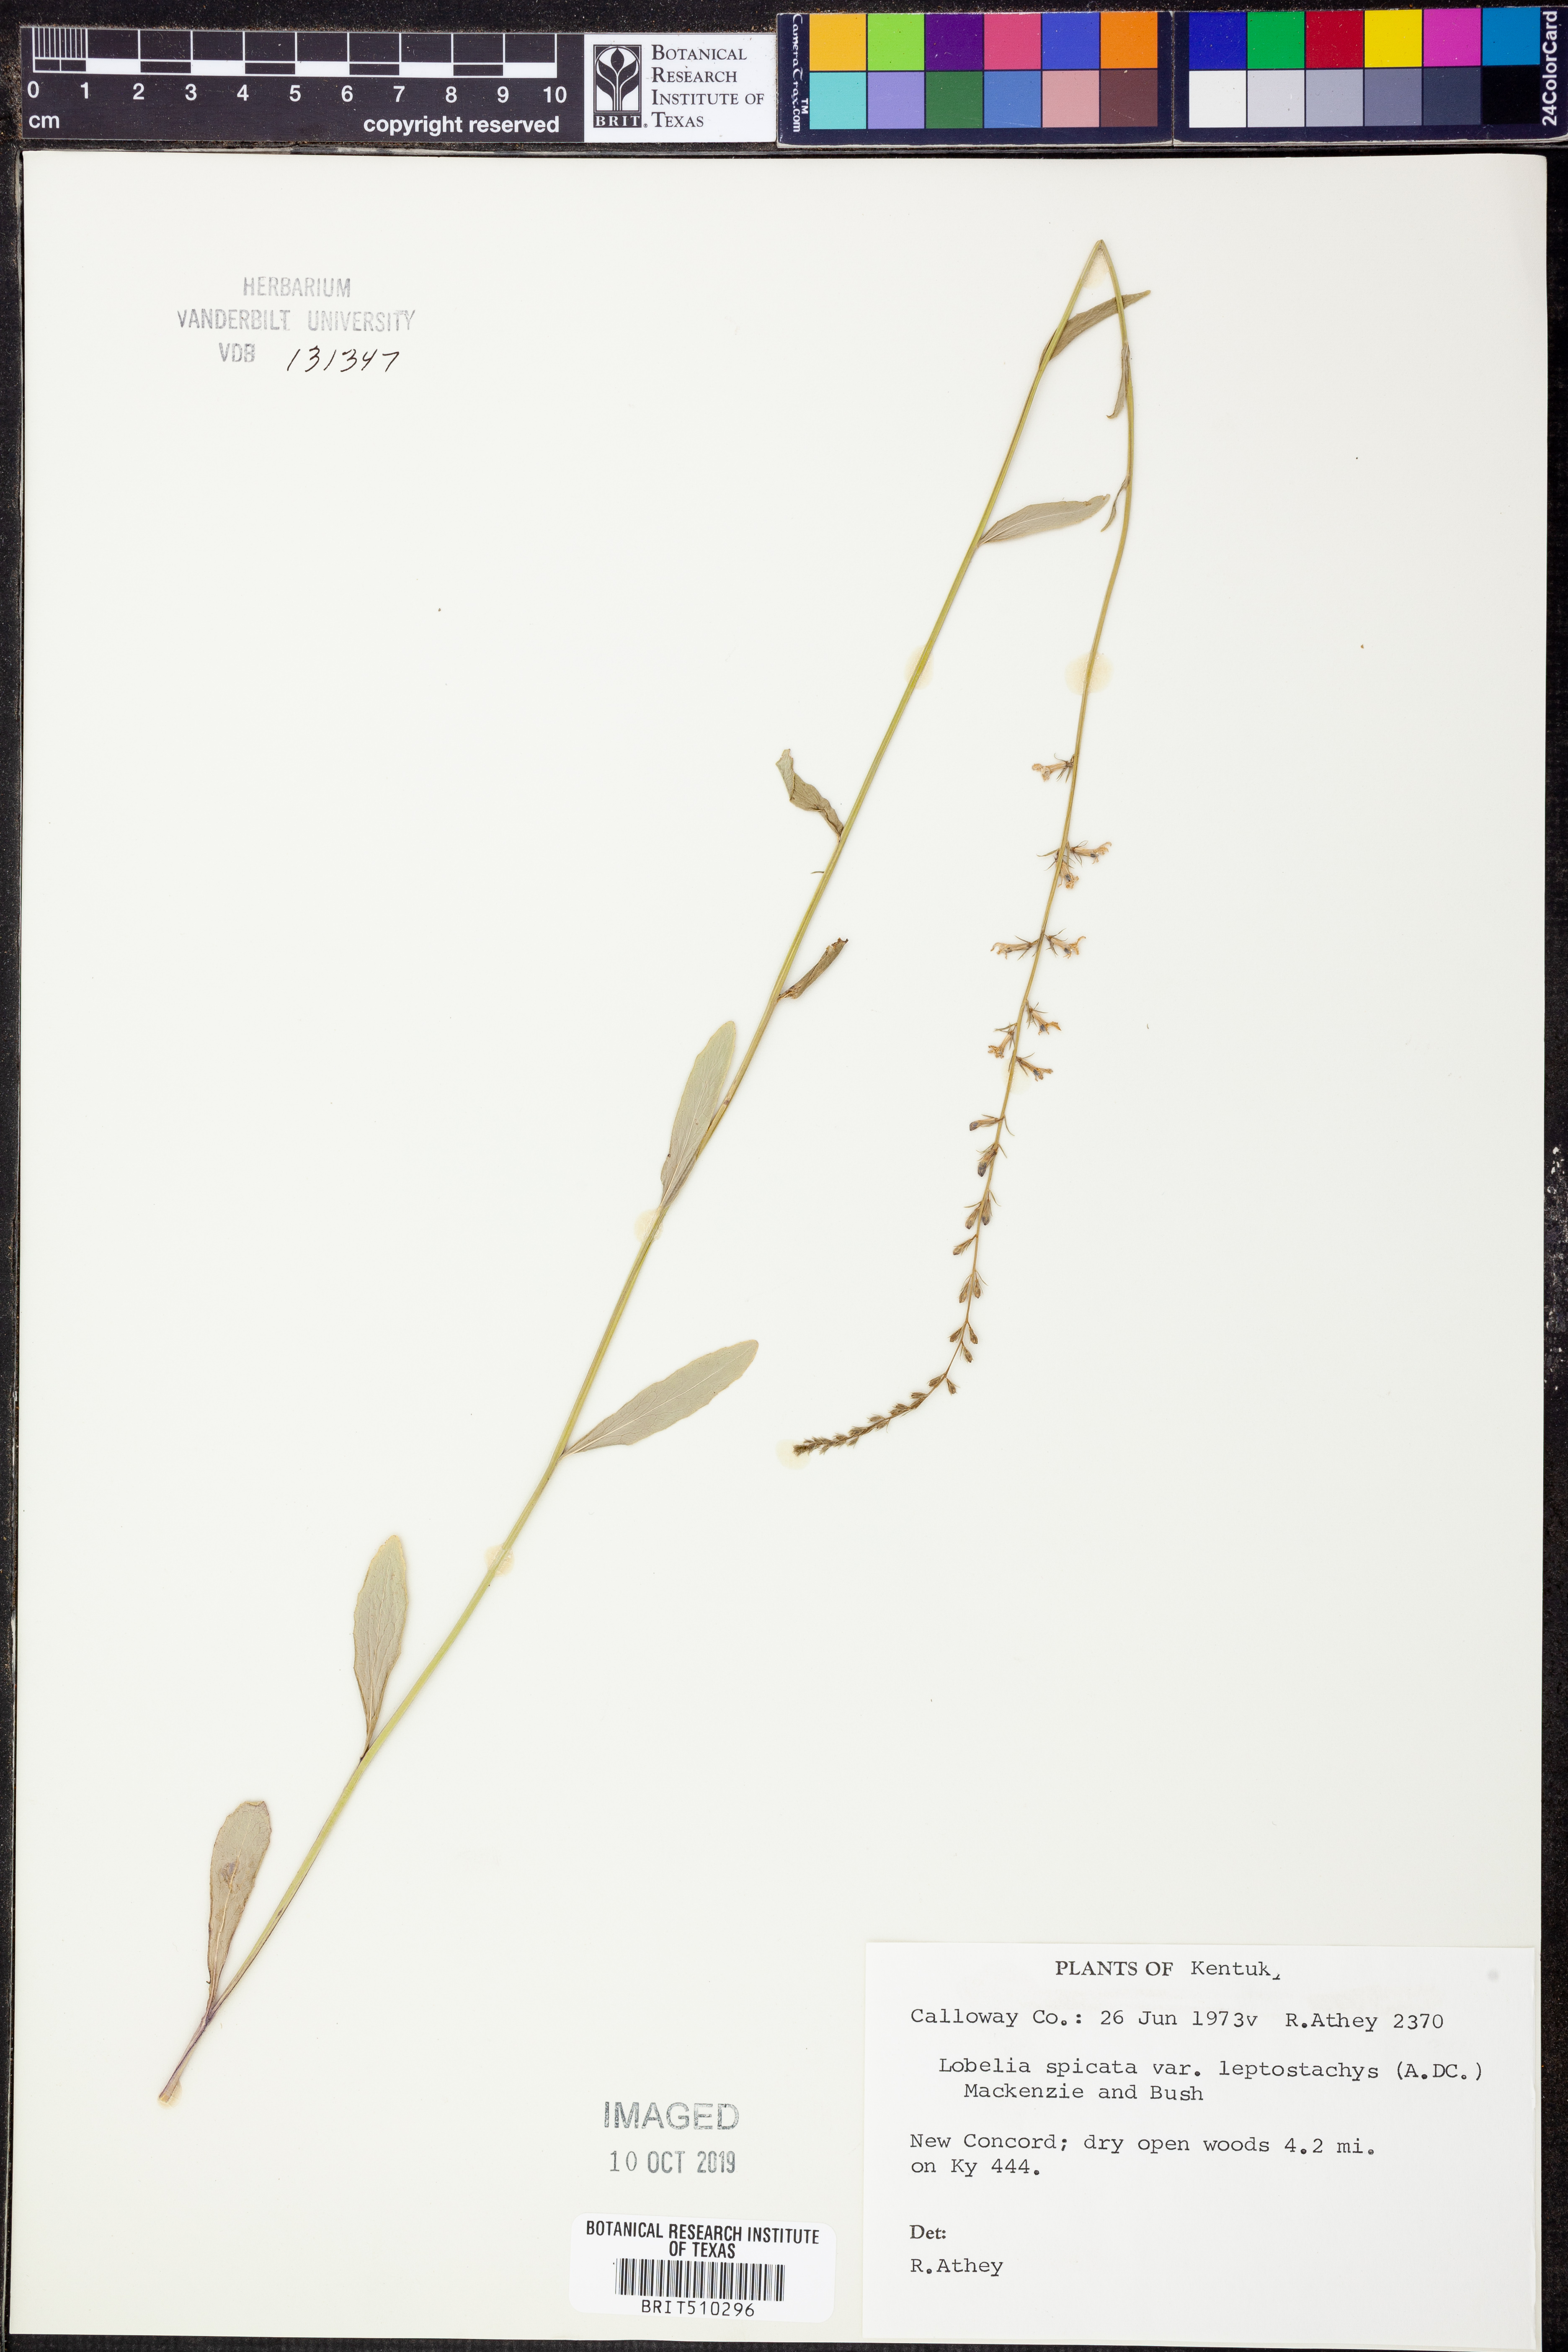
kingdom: Plantae
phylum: Tracheophyta
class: Magnoliopsida
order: Asterales
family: Campanulaceae
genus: Lobelia
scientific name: Lobelia spicata
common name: Pale-spike lobelia
